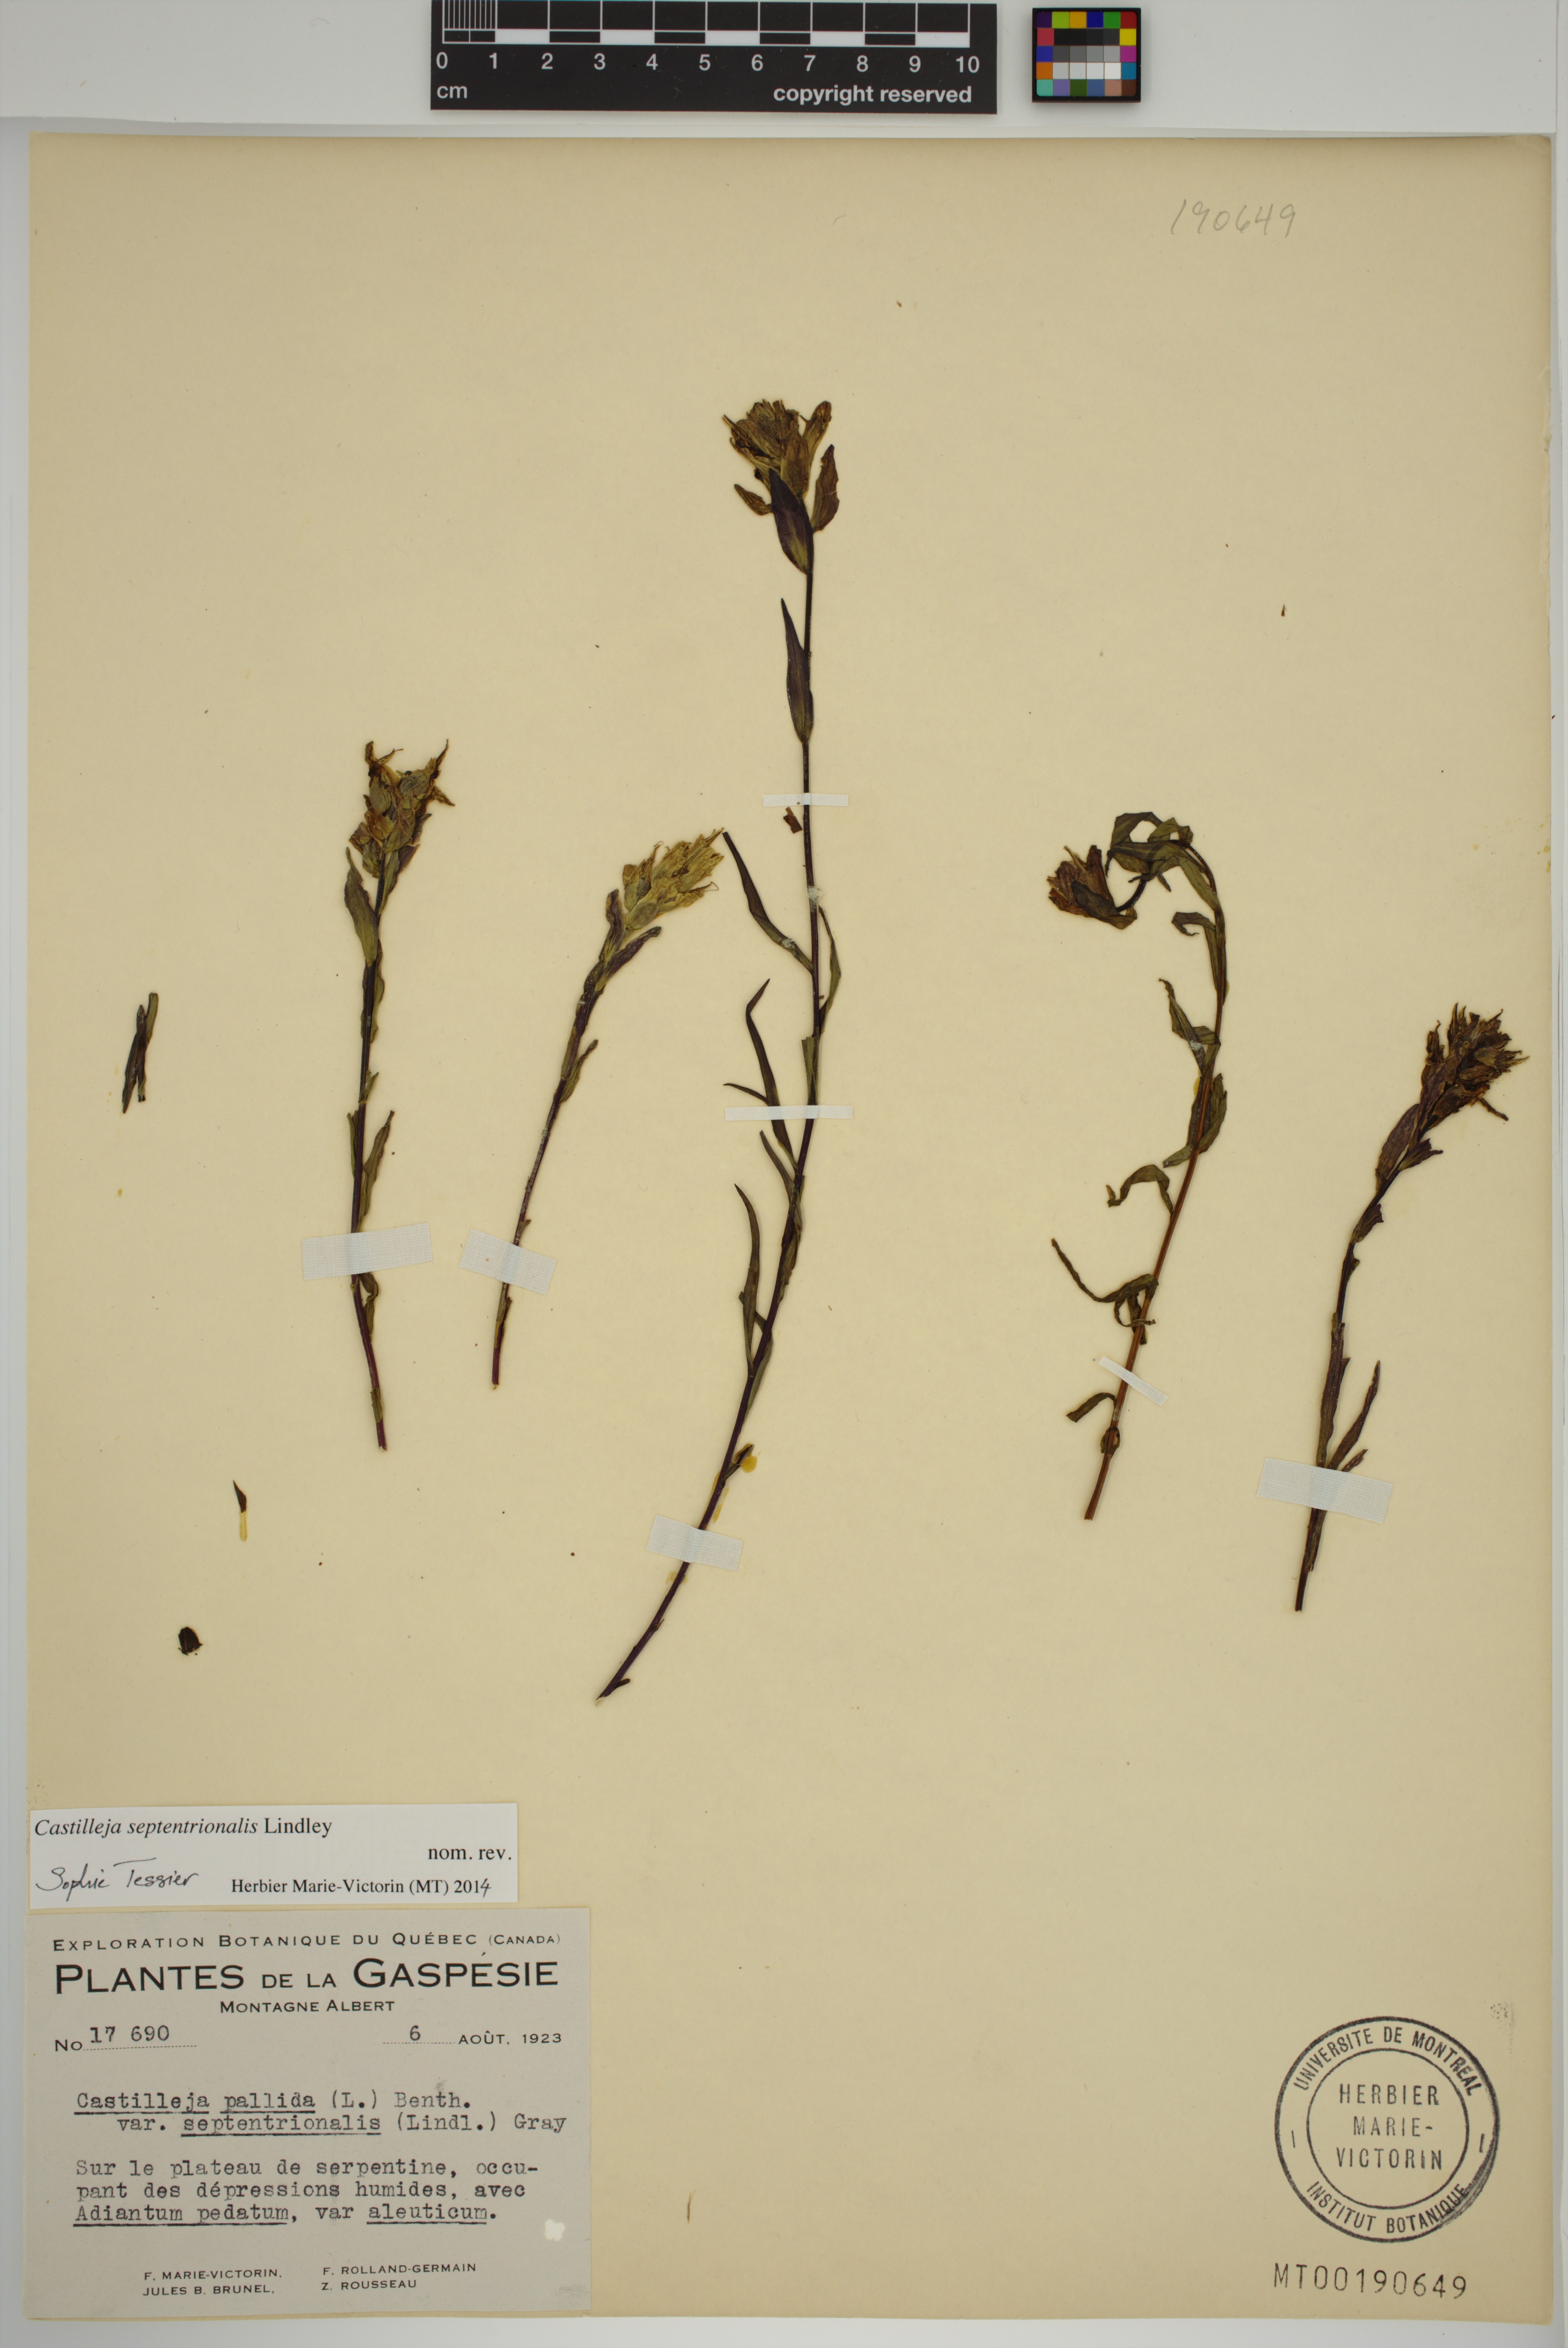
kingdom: Plantae
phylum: Tracheophyta
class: Magnoliopsida
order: Lamiales
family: Orobanchaceae
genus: Castilleja
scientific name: Castilleja septentrionalis
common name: Northeastern paintbrush
